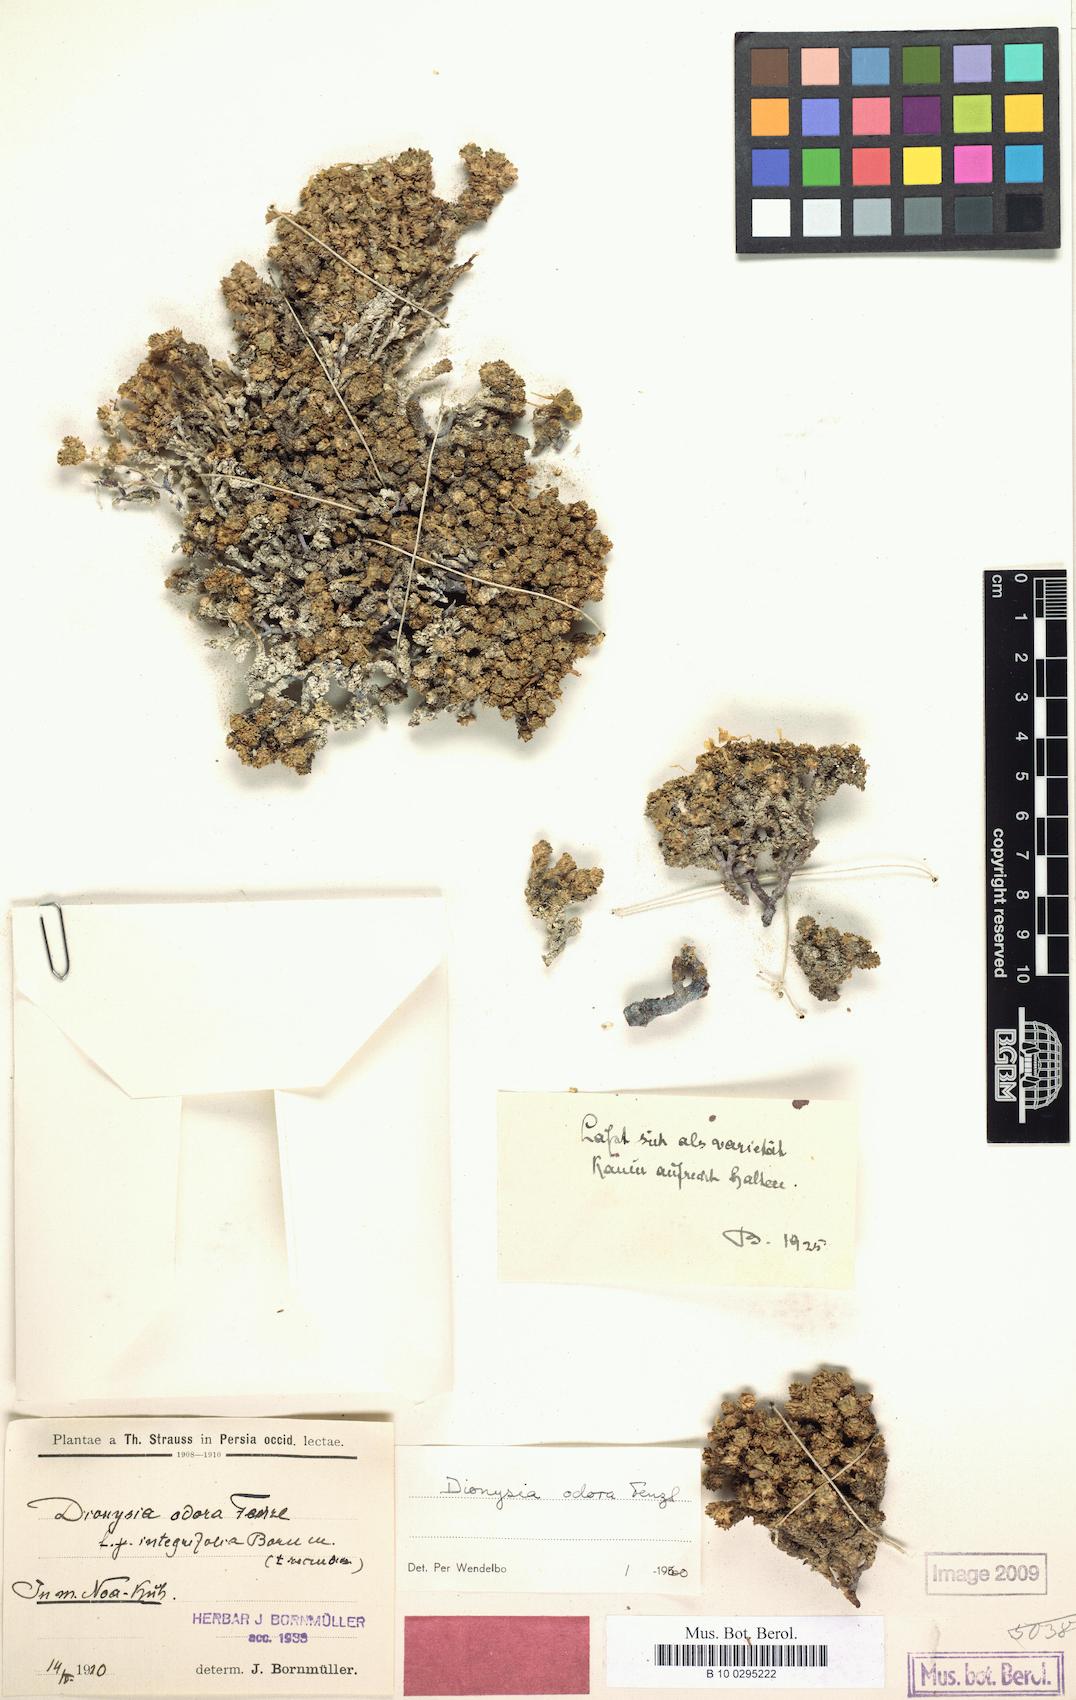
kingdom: Plantae
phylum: Tracheophyta
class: Magnoliopsida
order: Ericales
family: Primulaceae
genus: Dionysia
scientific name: Dionysia odora
